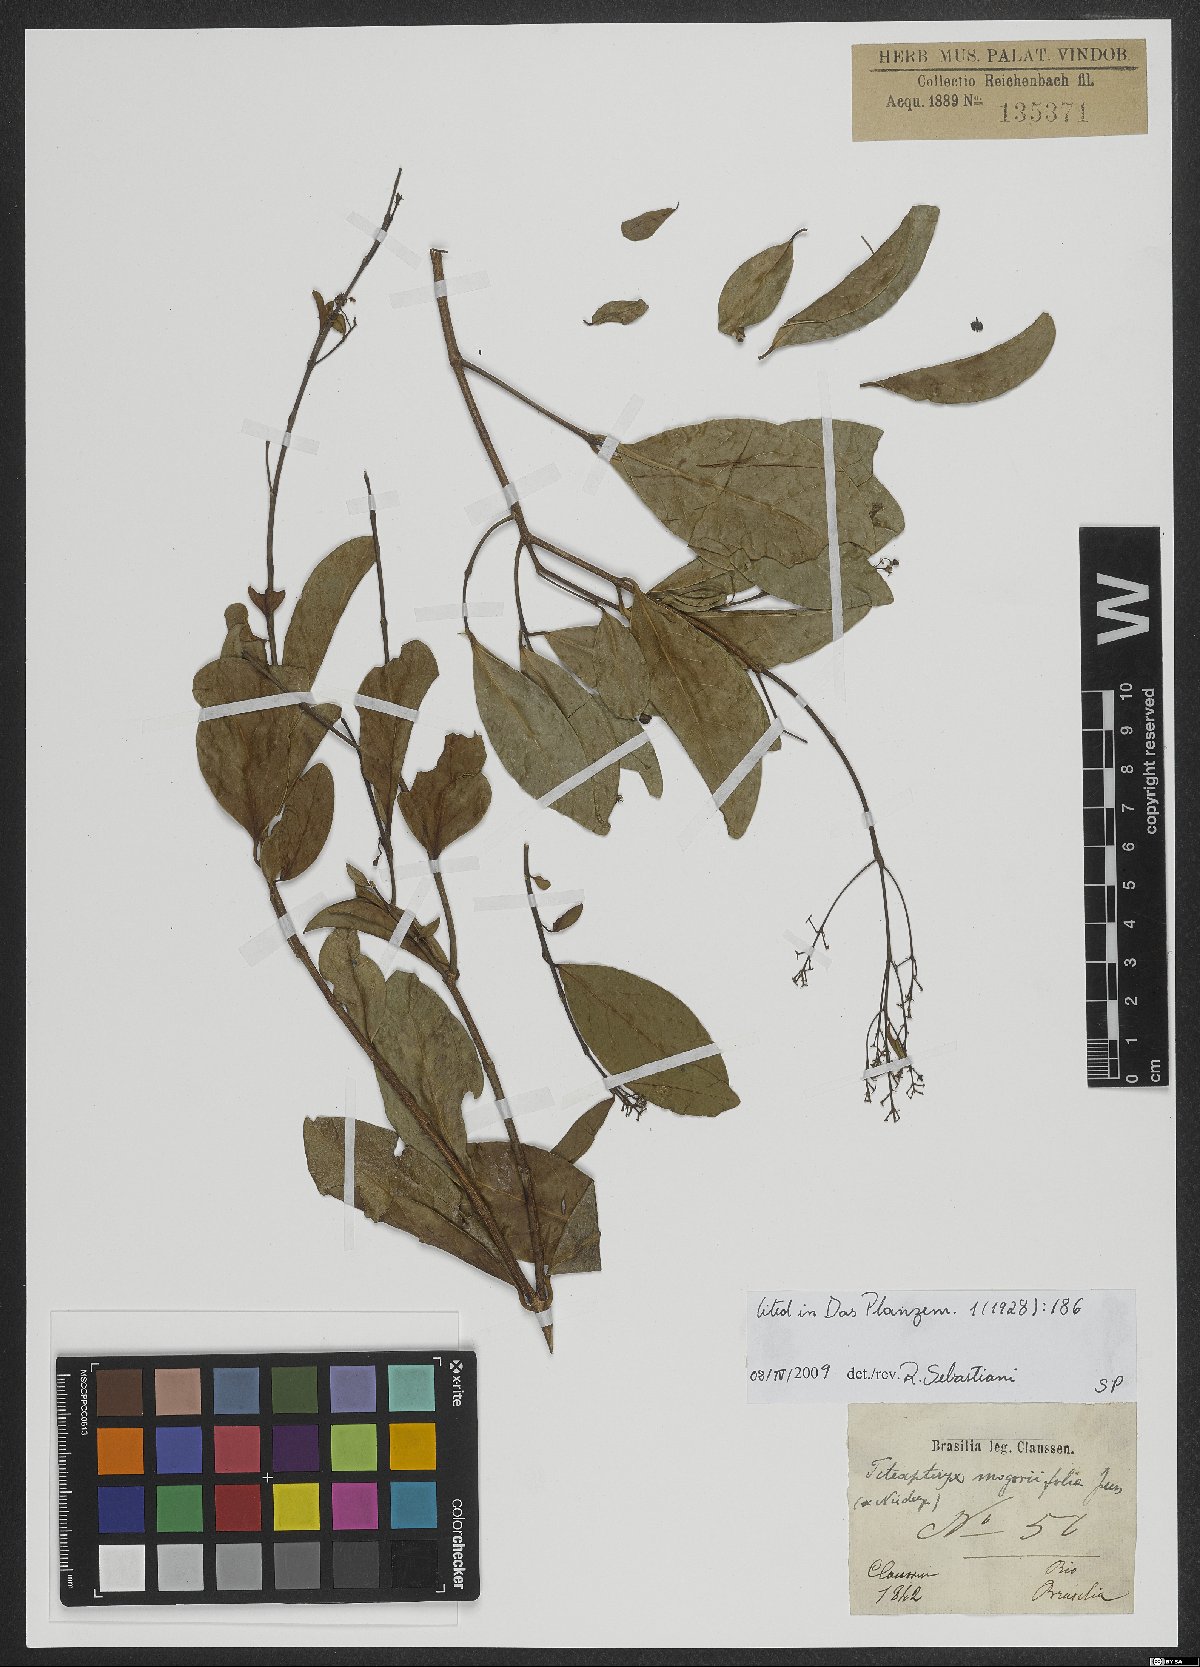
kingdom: Plantae
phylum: Tracheophyta
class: Magnoliopsida
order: Malpighiales
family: Malpighiaceae
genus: Niedenzuella
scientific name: Niedenzuella mogoriifolia
